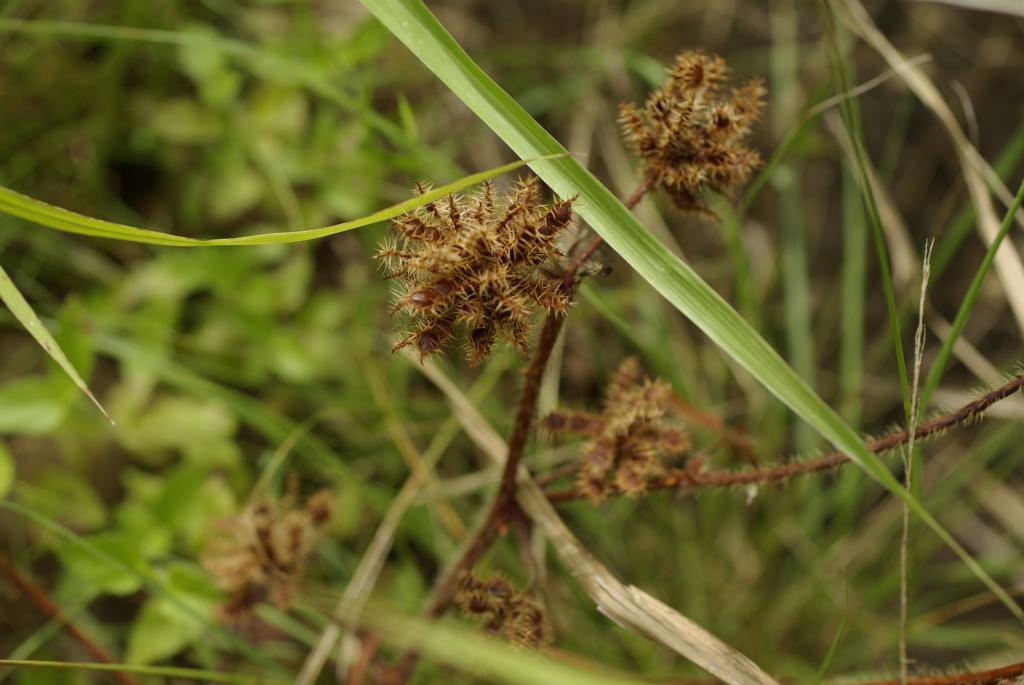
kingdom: Plantae
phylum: Tracheophyta
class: Magnoliopsida
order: Fabales
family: Fabaceae
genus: Mimosa
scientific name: Mimosa pudica
